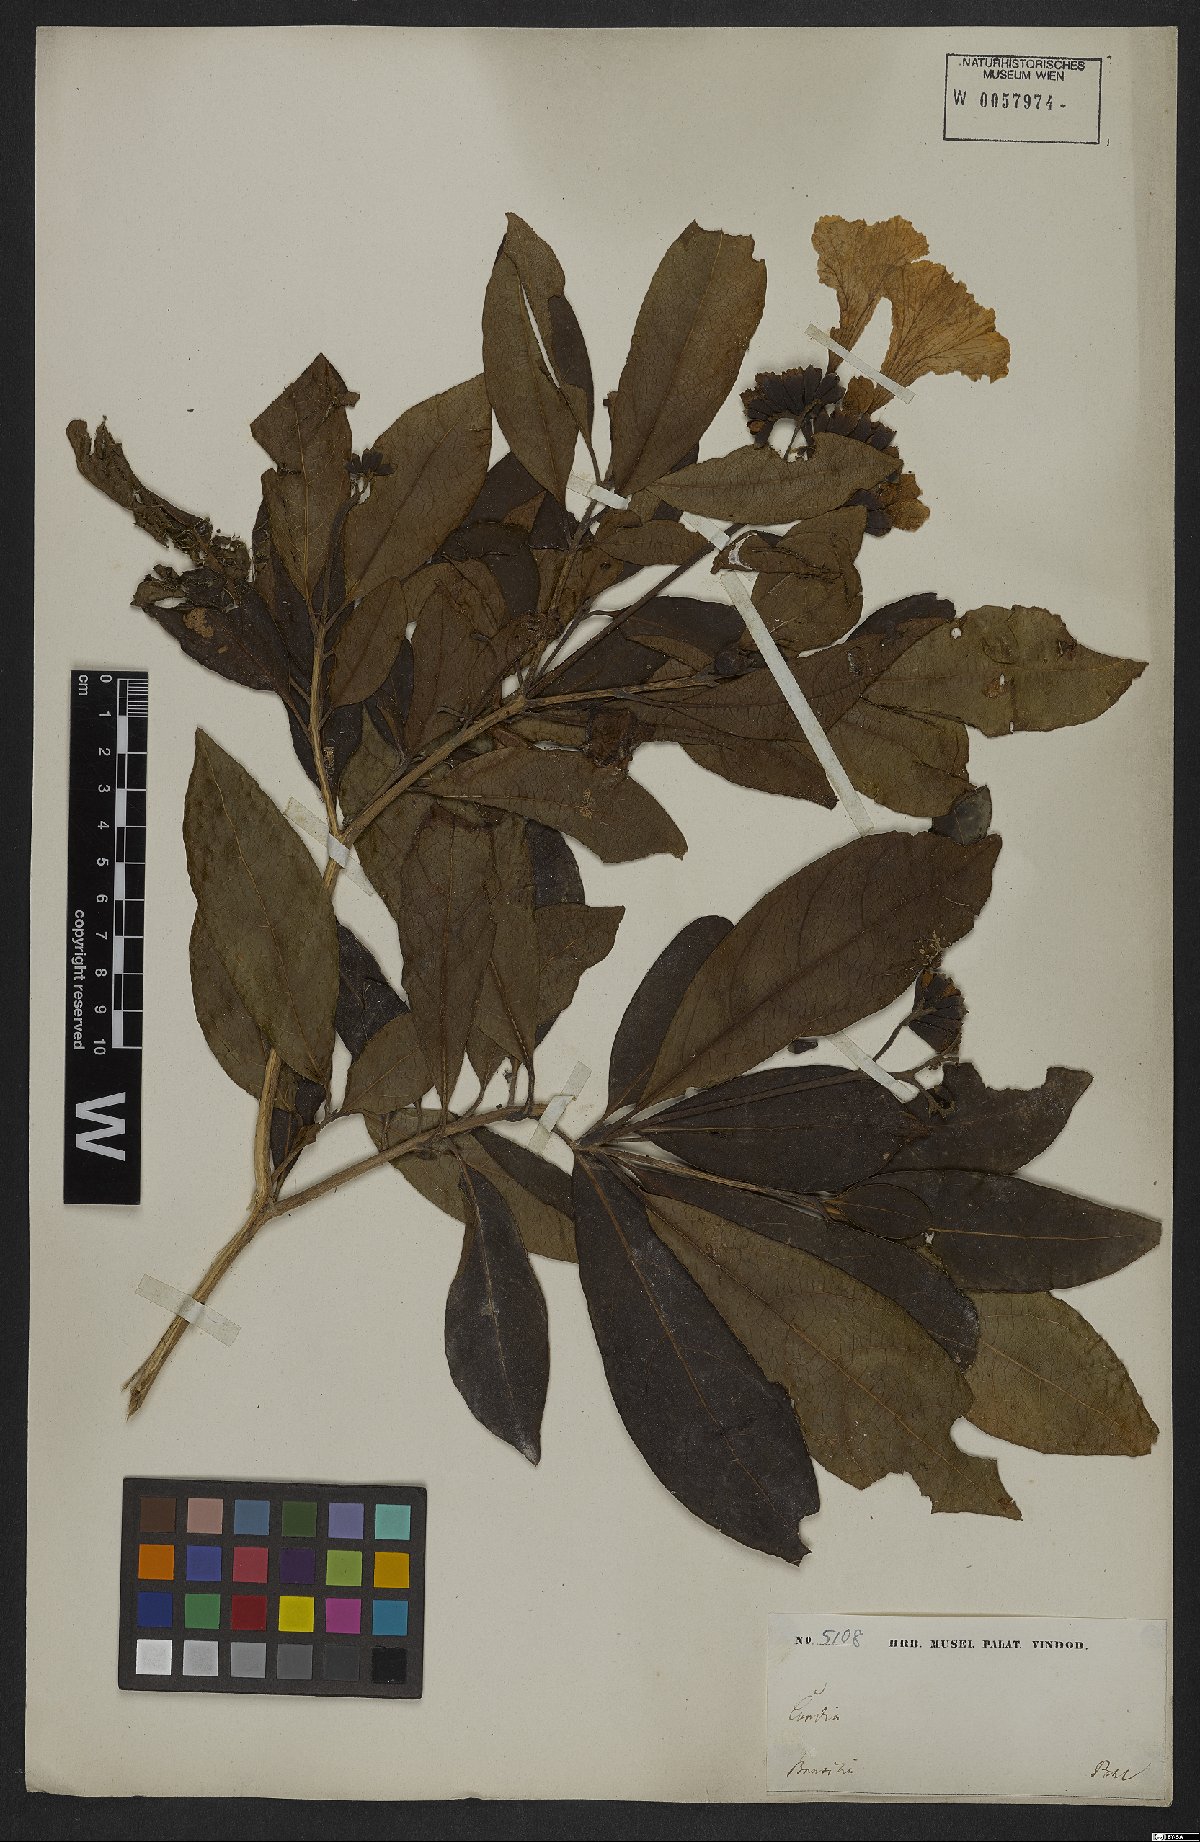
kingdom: Plantae
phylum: Tracheophyta
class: Magnoliopsida
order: Boraginales
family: Cordiaceae
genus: Cordia
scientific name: Cordia glabra
